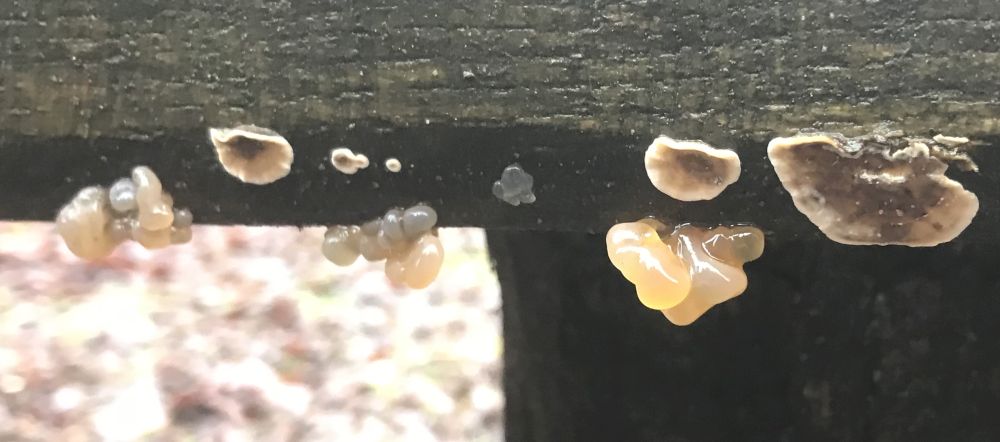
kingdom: Fungi
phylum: Basidiomycota
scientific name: Basidiomycota
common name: basidiesvampe
